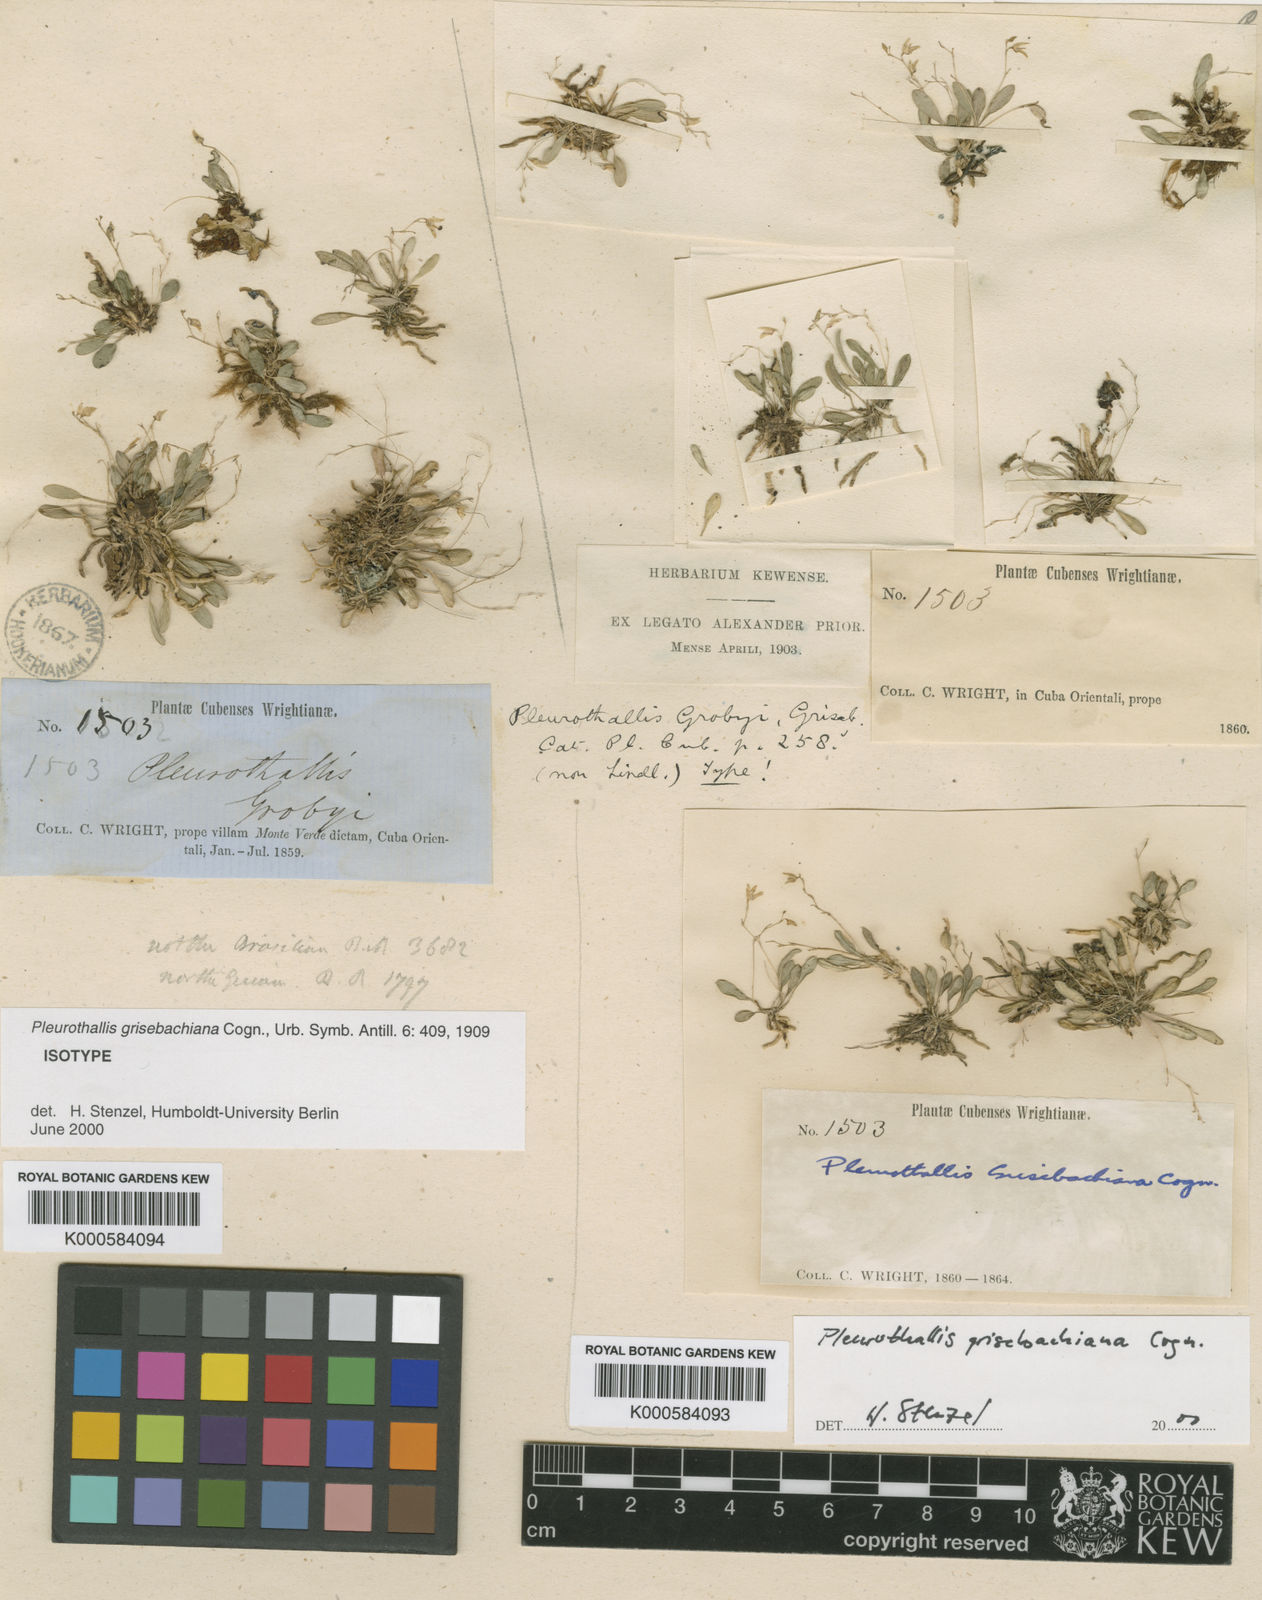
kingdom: Plantae
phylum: Tracheophyta
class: Liliopsida
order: Asparagales
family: Orchidaceae
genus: Specklinia
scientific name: Specklinia grisebachiana
